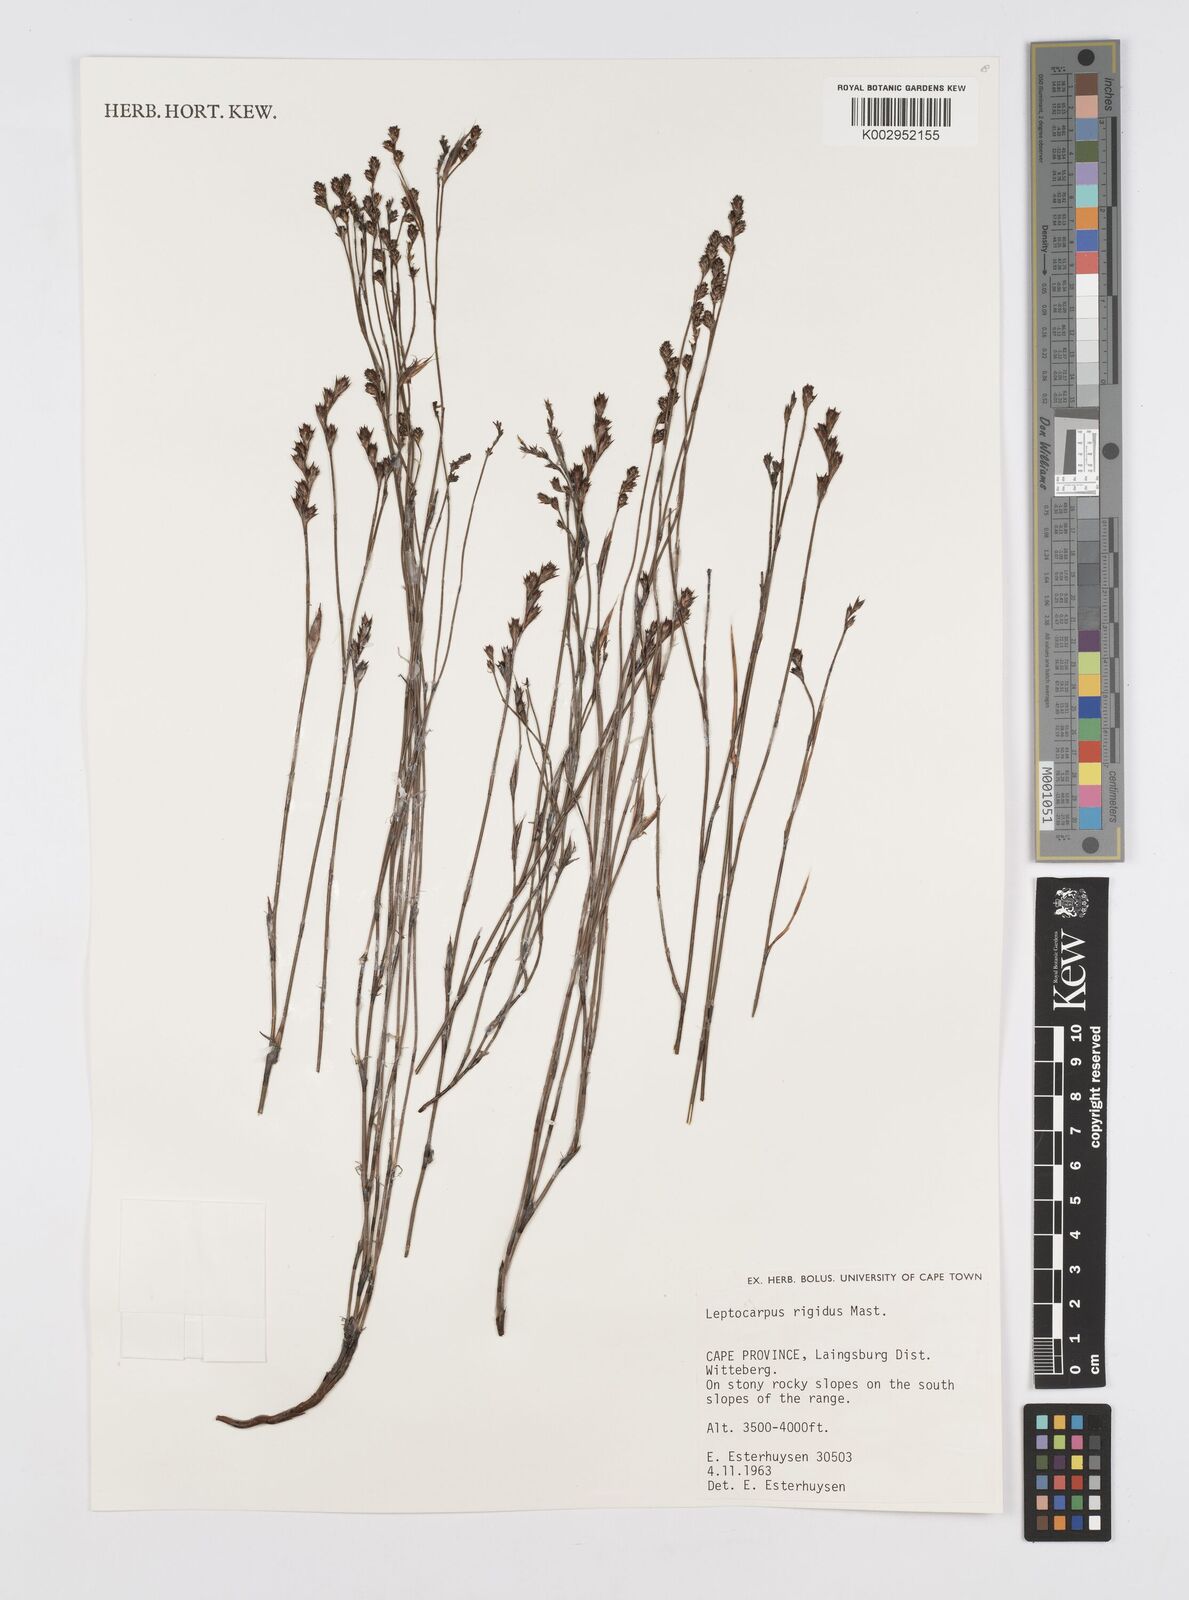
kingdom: Plantae
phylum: Tracheophyta
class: Liliopsida
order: Poales
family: Restionaceae
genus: Restio
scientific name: Restio rigidus
